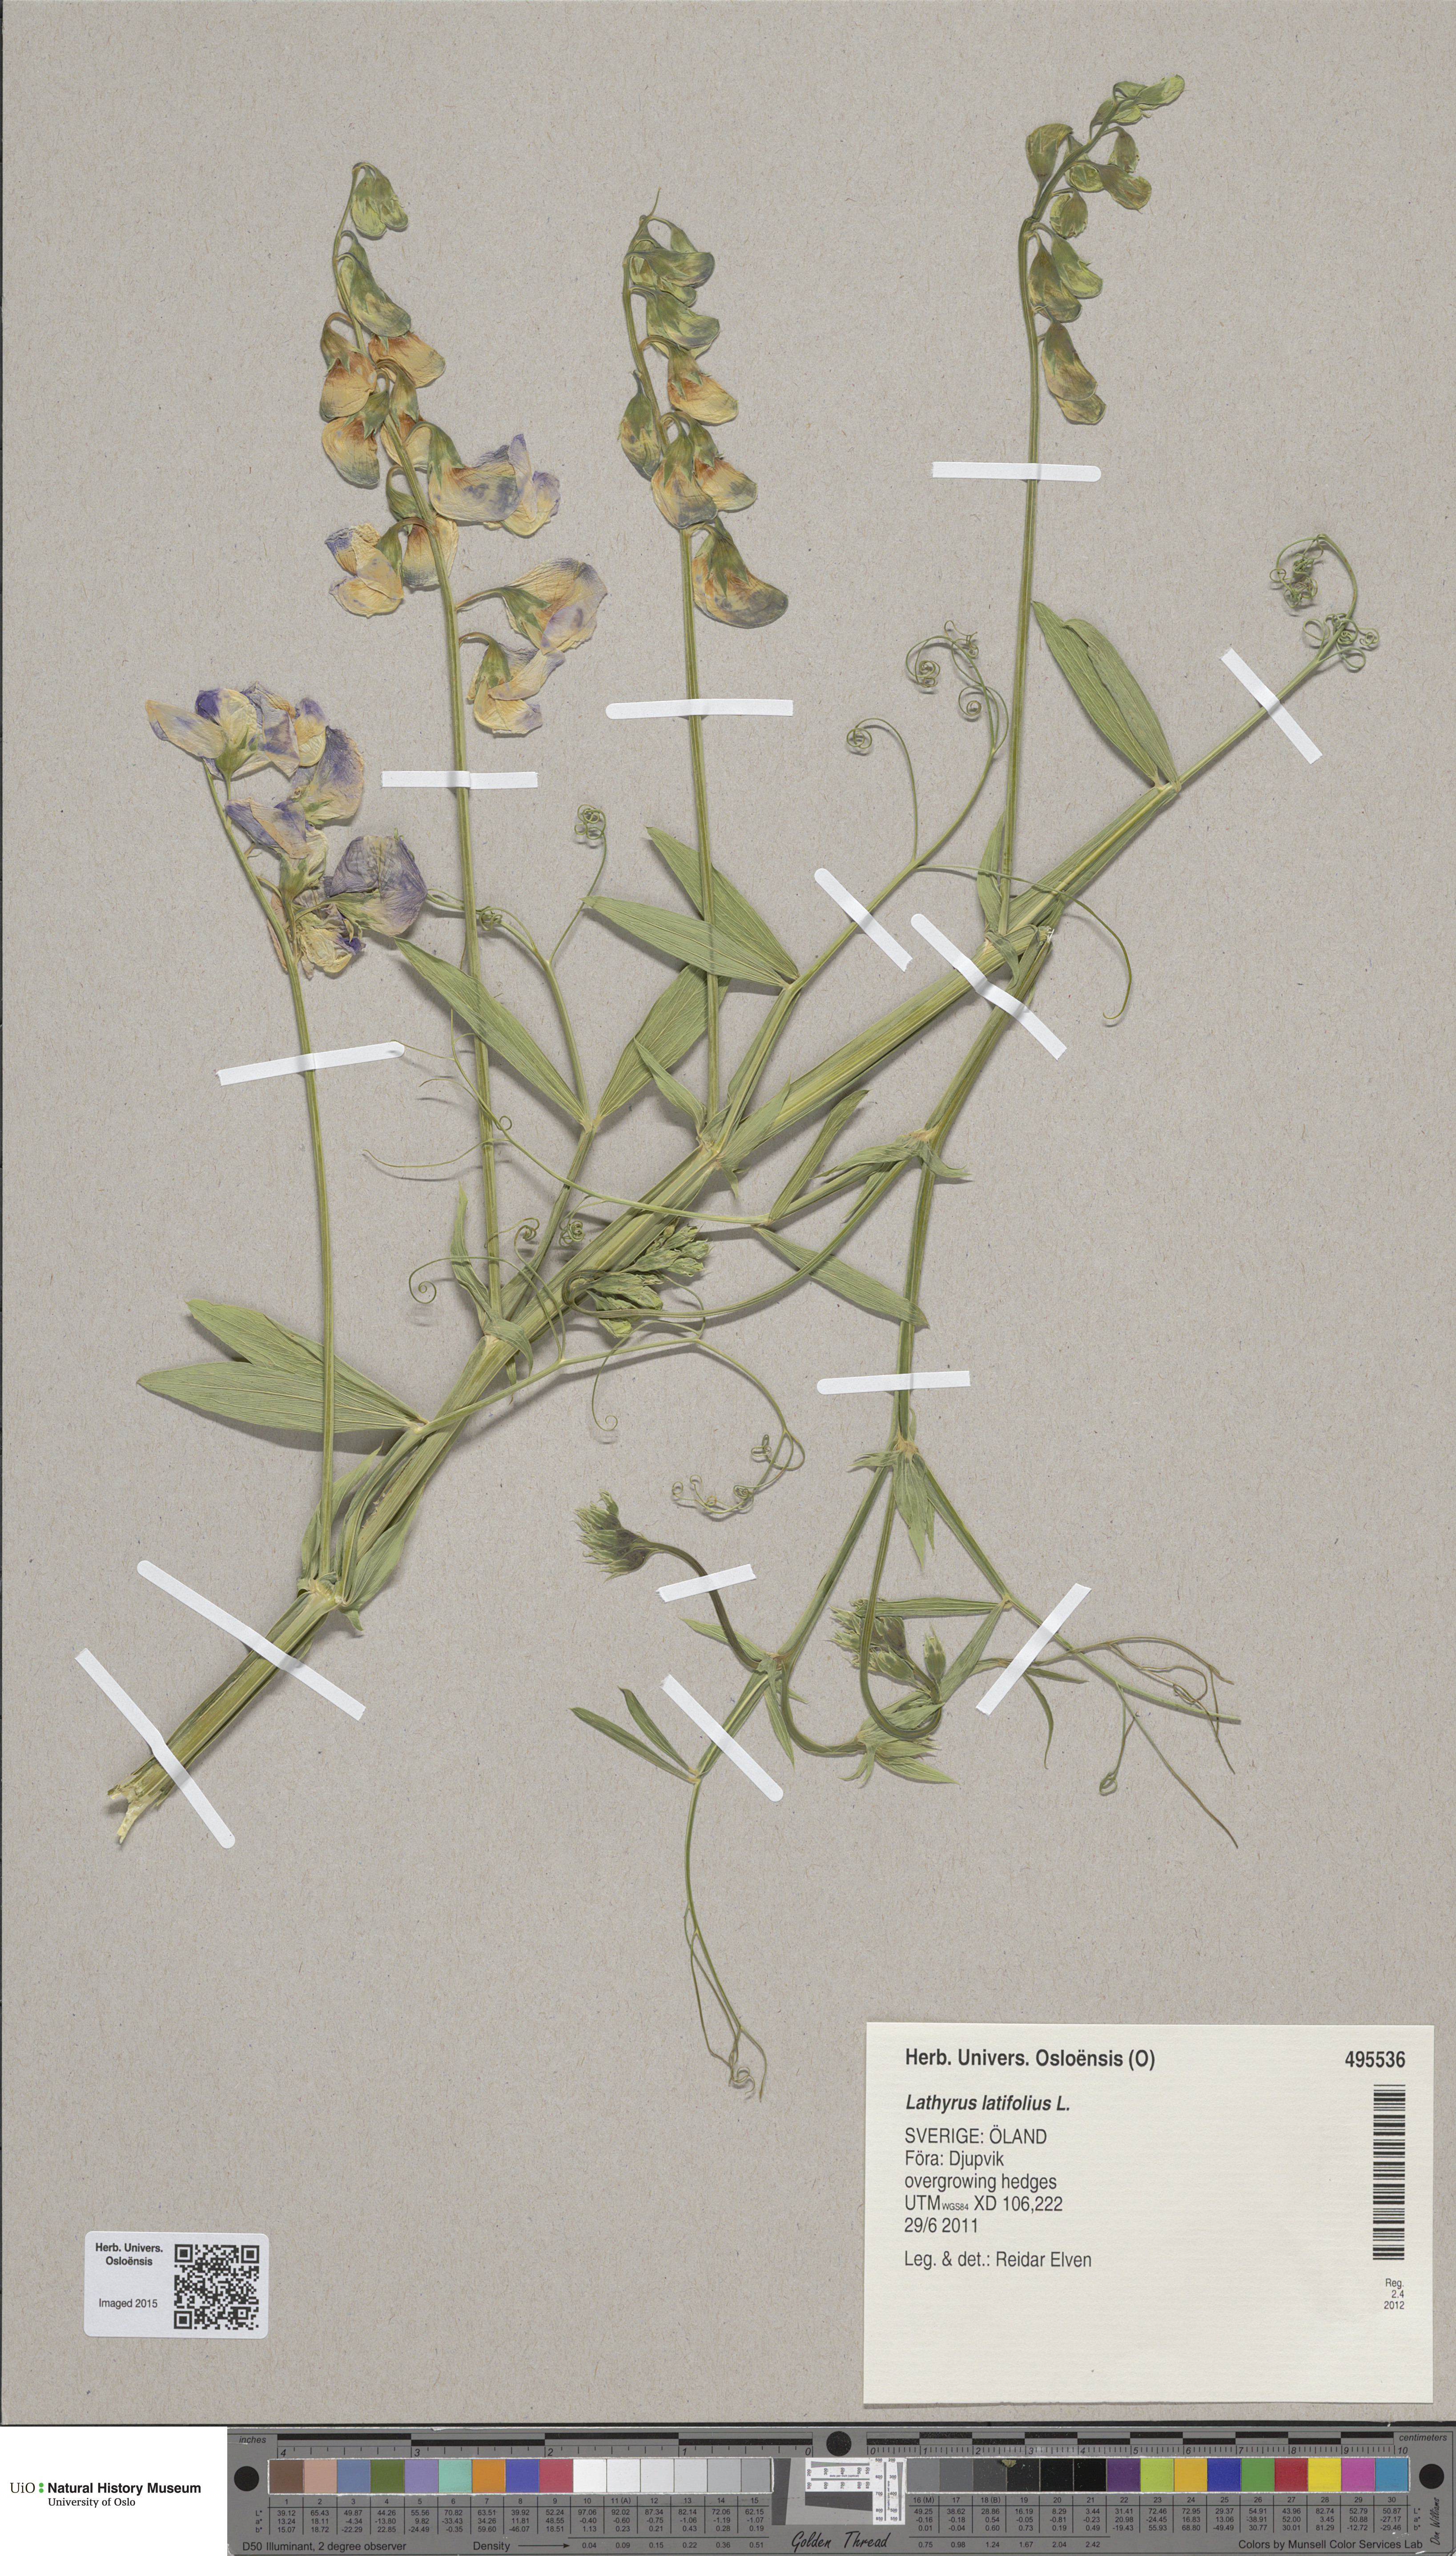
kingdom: Plantae
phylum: Tracheophyta
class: Magnoliopsida
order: Fabales
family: Fabaceae
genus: Lathyrus
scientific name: Lathyrus latifolius
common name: Perennial pea
